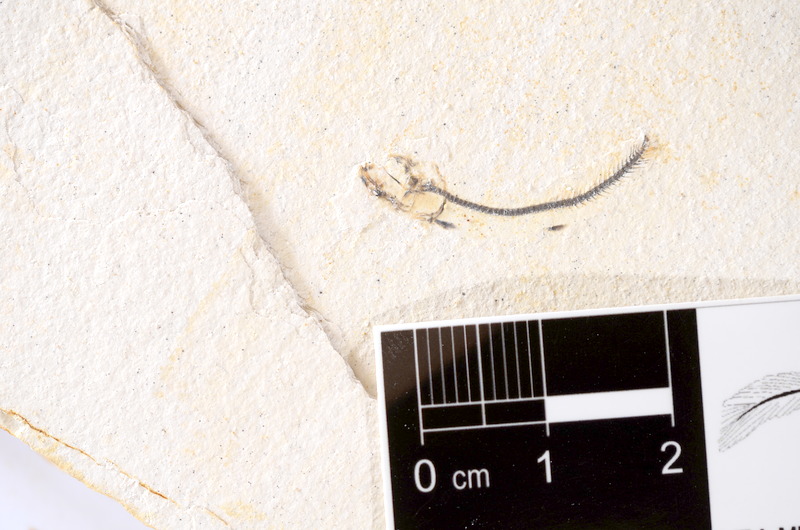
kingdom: Animalia
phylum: Chordata
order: Salmoniformes
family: Orthogonikleithridae
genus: Orthogonikleithrus
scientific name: Orthogonikleithrus hoelli
